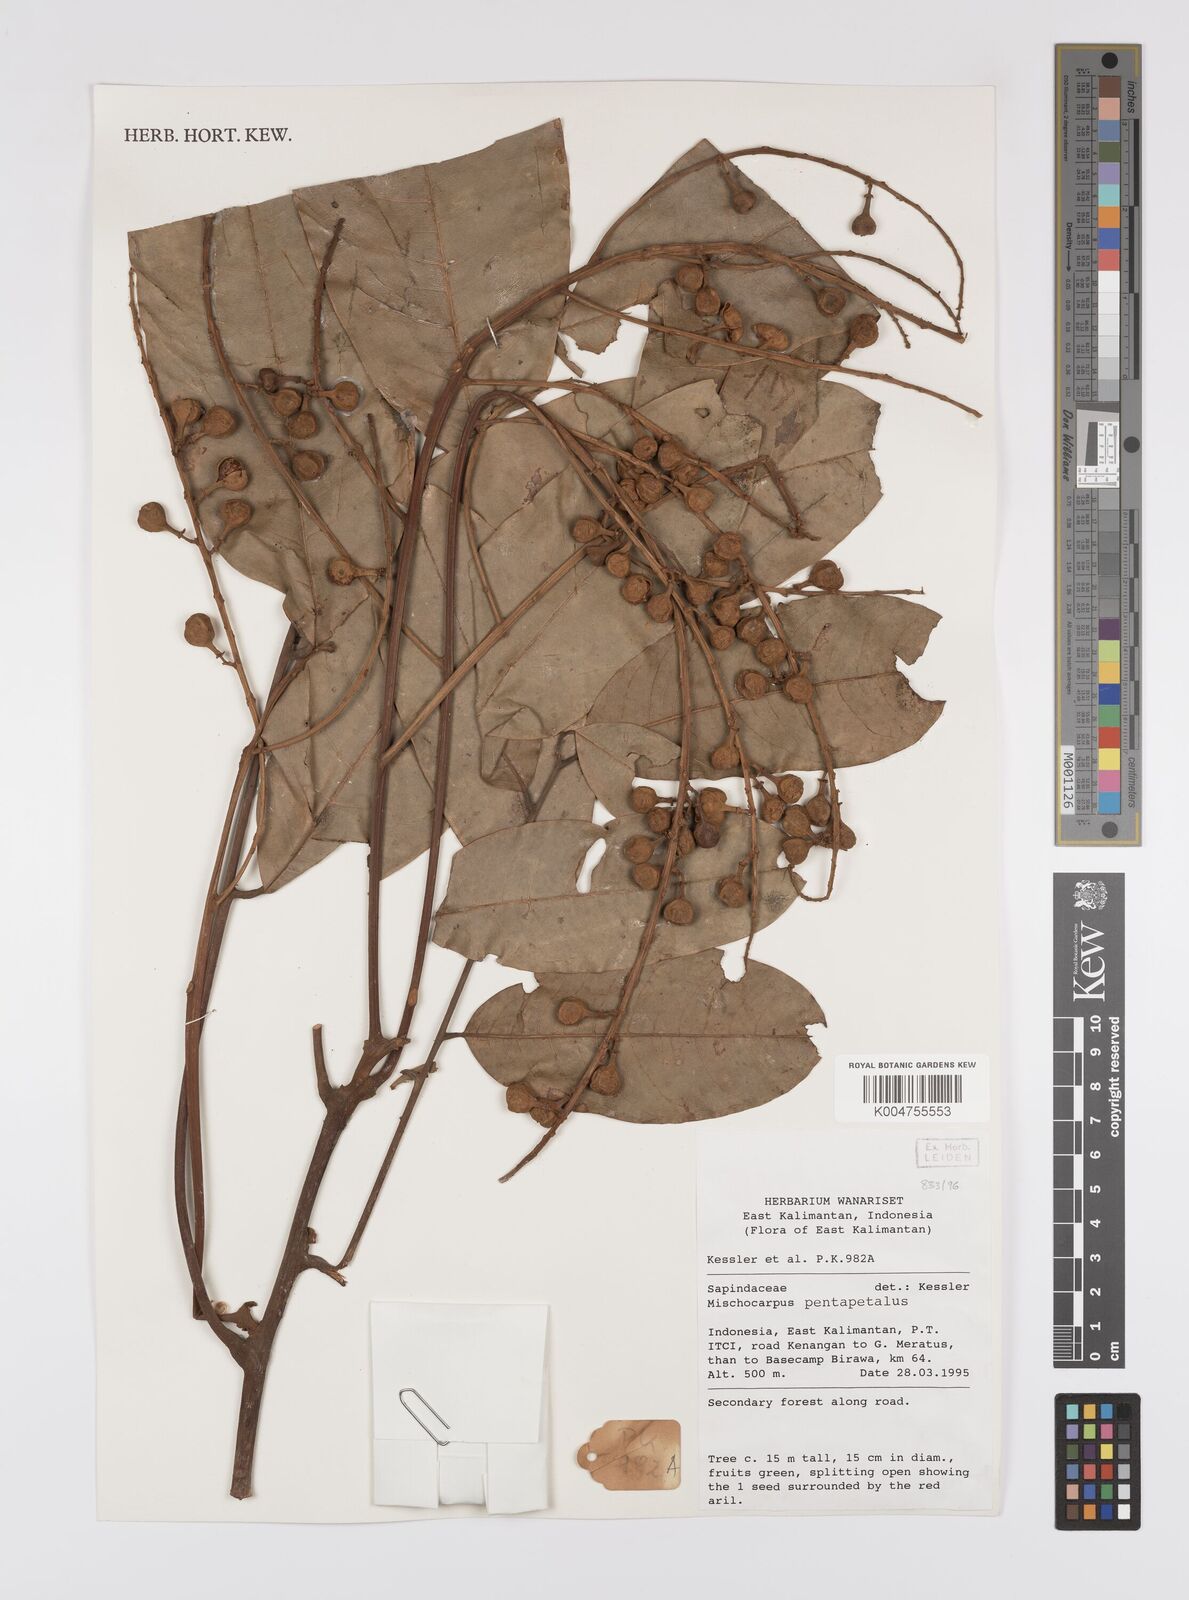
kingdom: Plantae
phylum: Tracheophyta
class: Magnoliopsida
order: Sapindales
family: Sapindaceae
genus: Mischocarpus
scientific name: Mischocarpus pentapetalus
